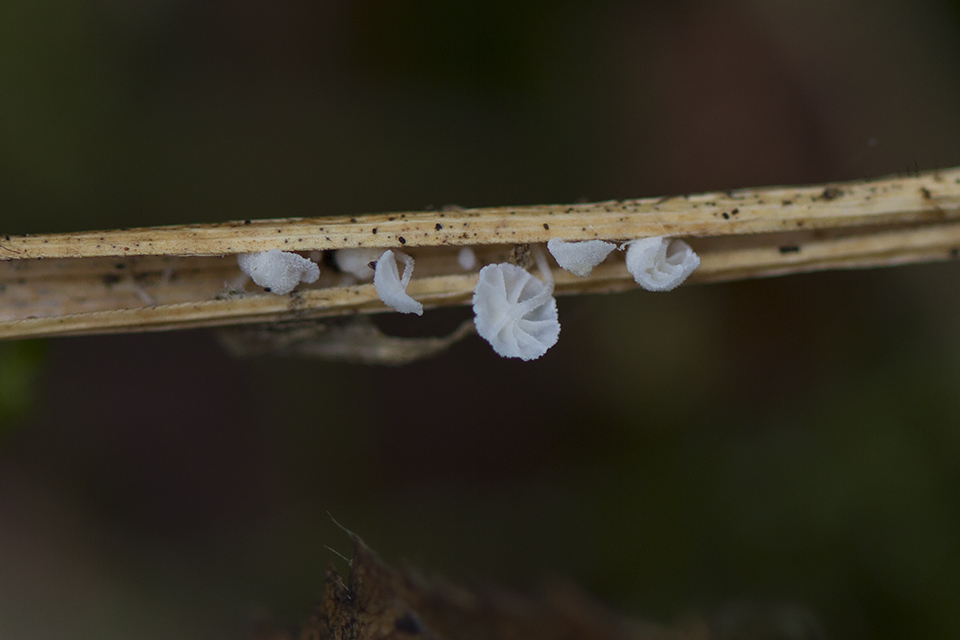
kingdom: Fungi
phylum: Basidiomycota
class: Agaricomycetes
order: Agaricales
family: Mycenaceae
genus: Resinomycena
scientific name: Resinomycena saccharifera
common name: sukkerhat
